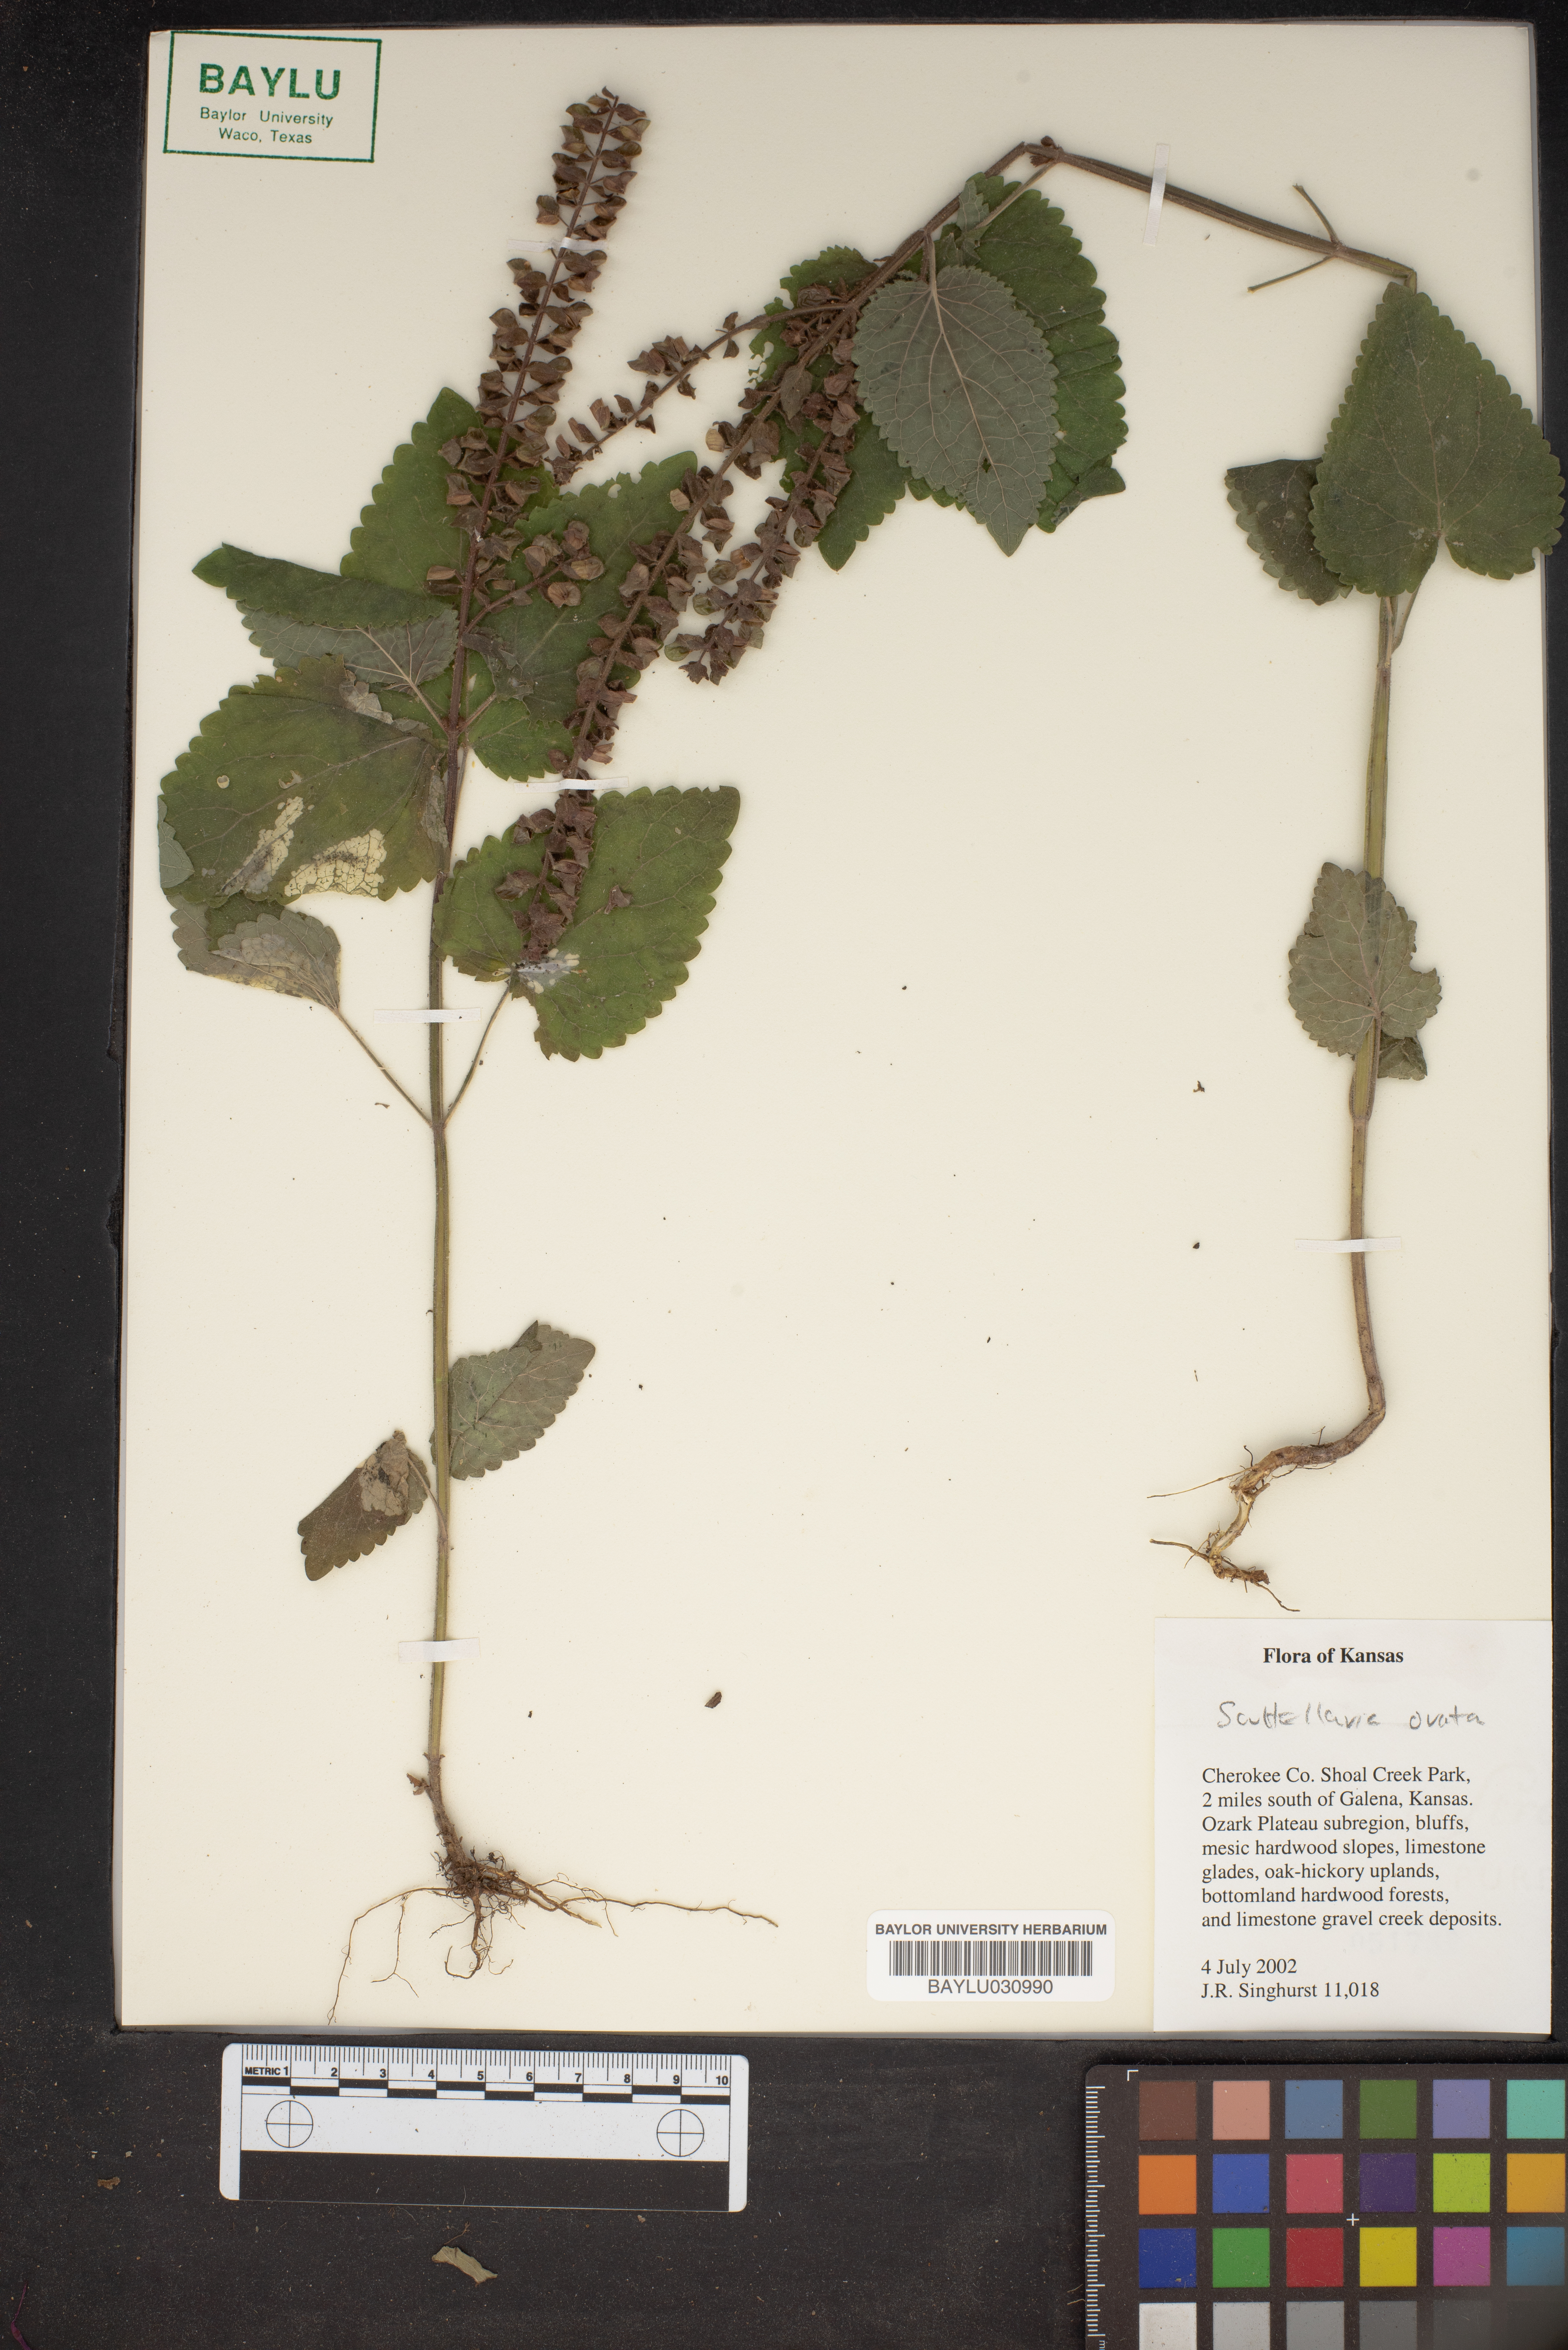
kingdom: Plantae
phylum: Tracheophyta
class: Magnoliopsida
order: Lamiales
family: Lamiaceae
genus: Scutellaria
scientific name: Scutellaria ovata
